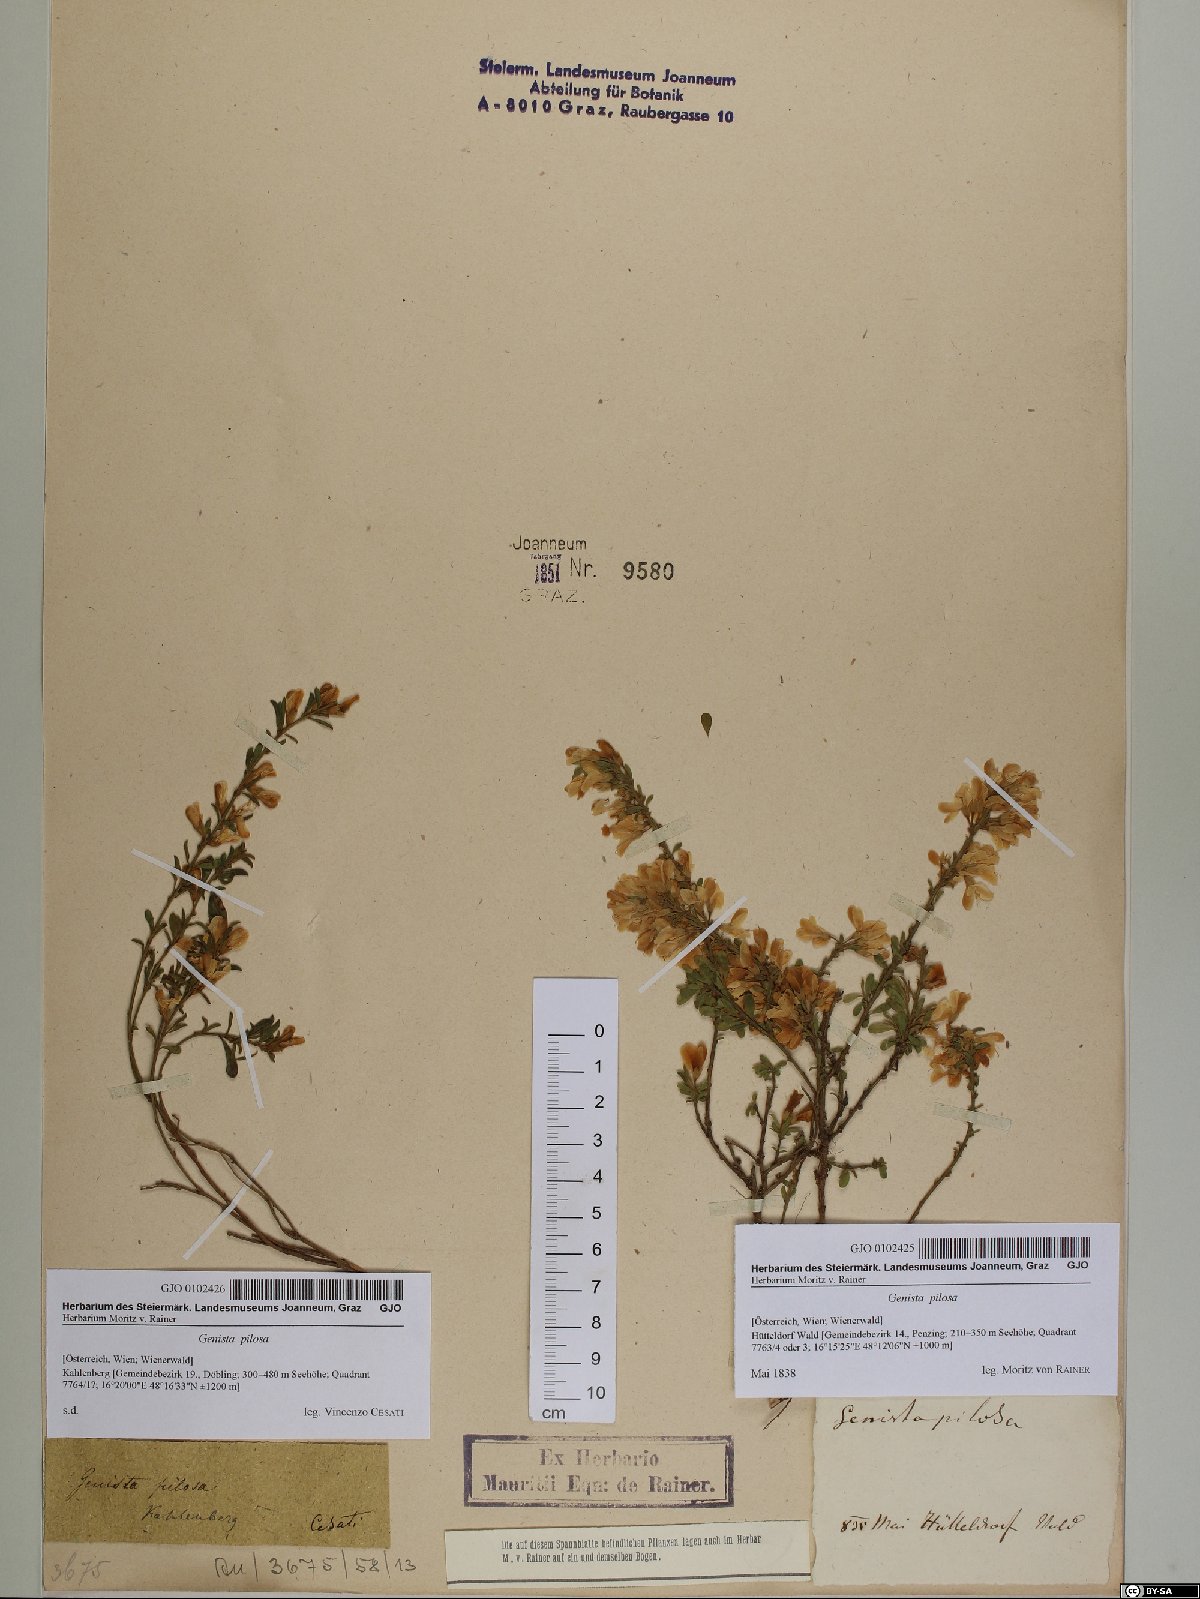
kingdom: Plantae
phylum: Tracheophyta
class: Magnoliopsida
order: Fabales
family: Fabaceae
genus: Genista
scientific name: Genista pilosa
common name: Hairy greenweed
